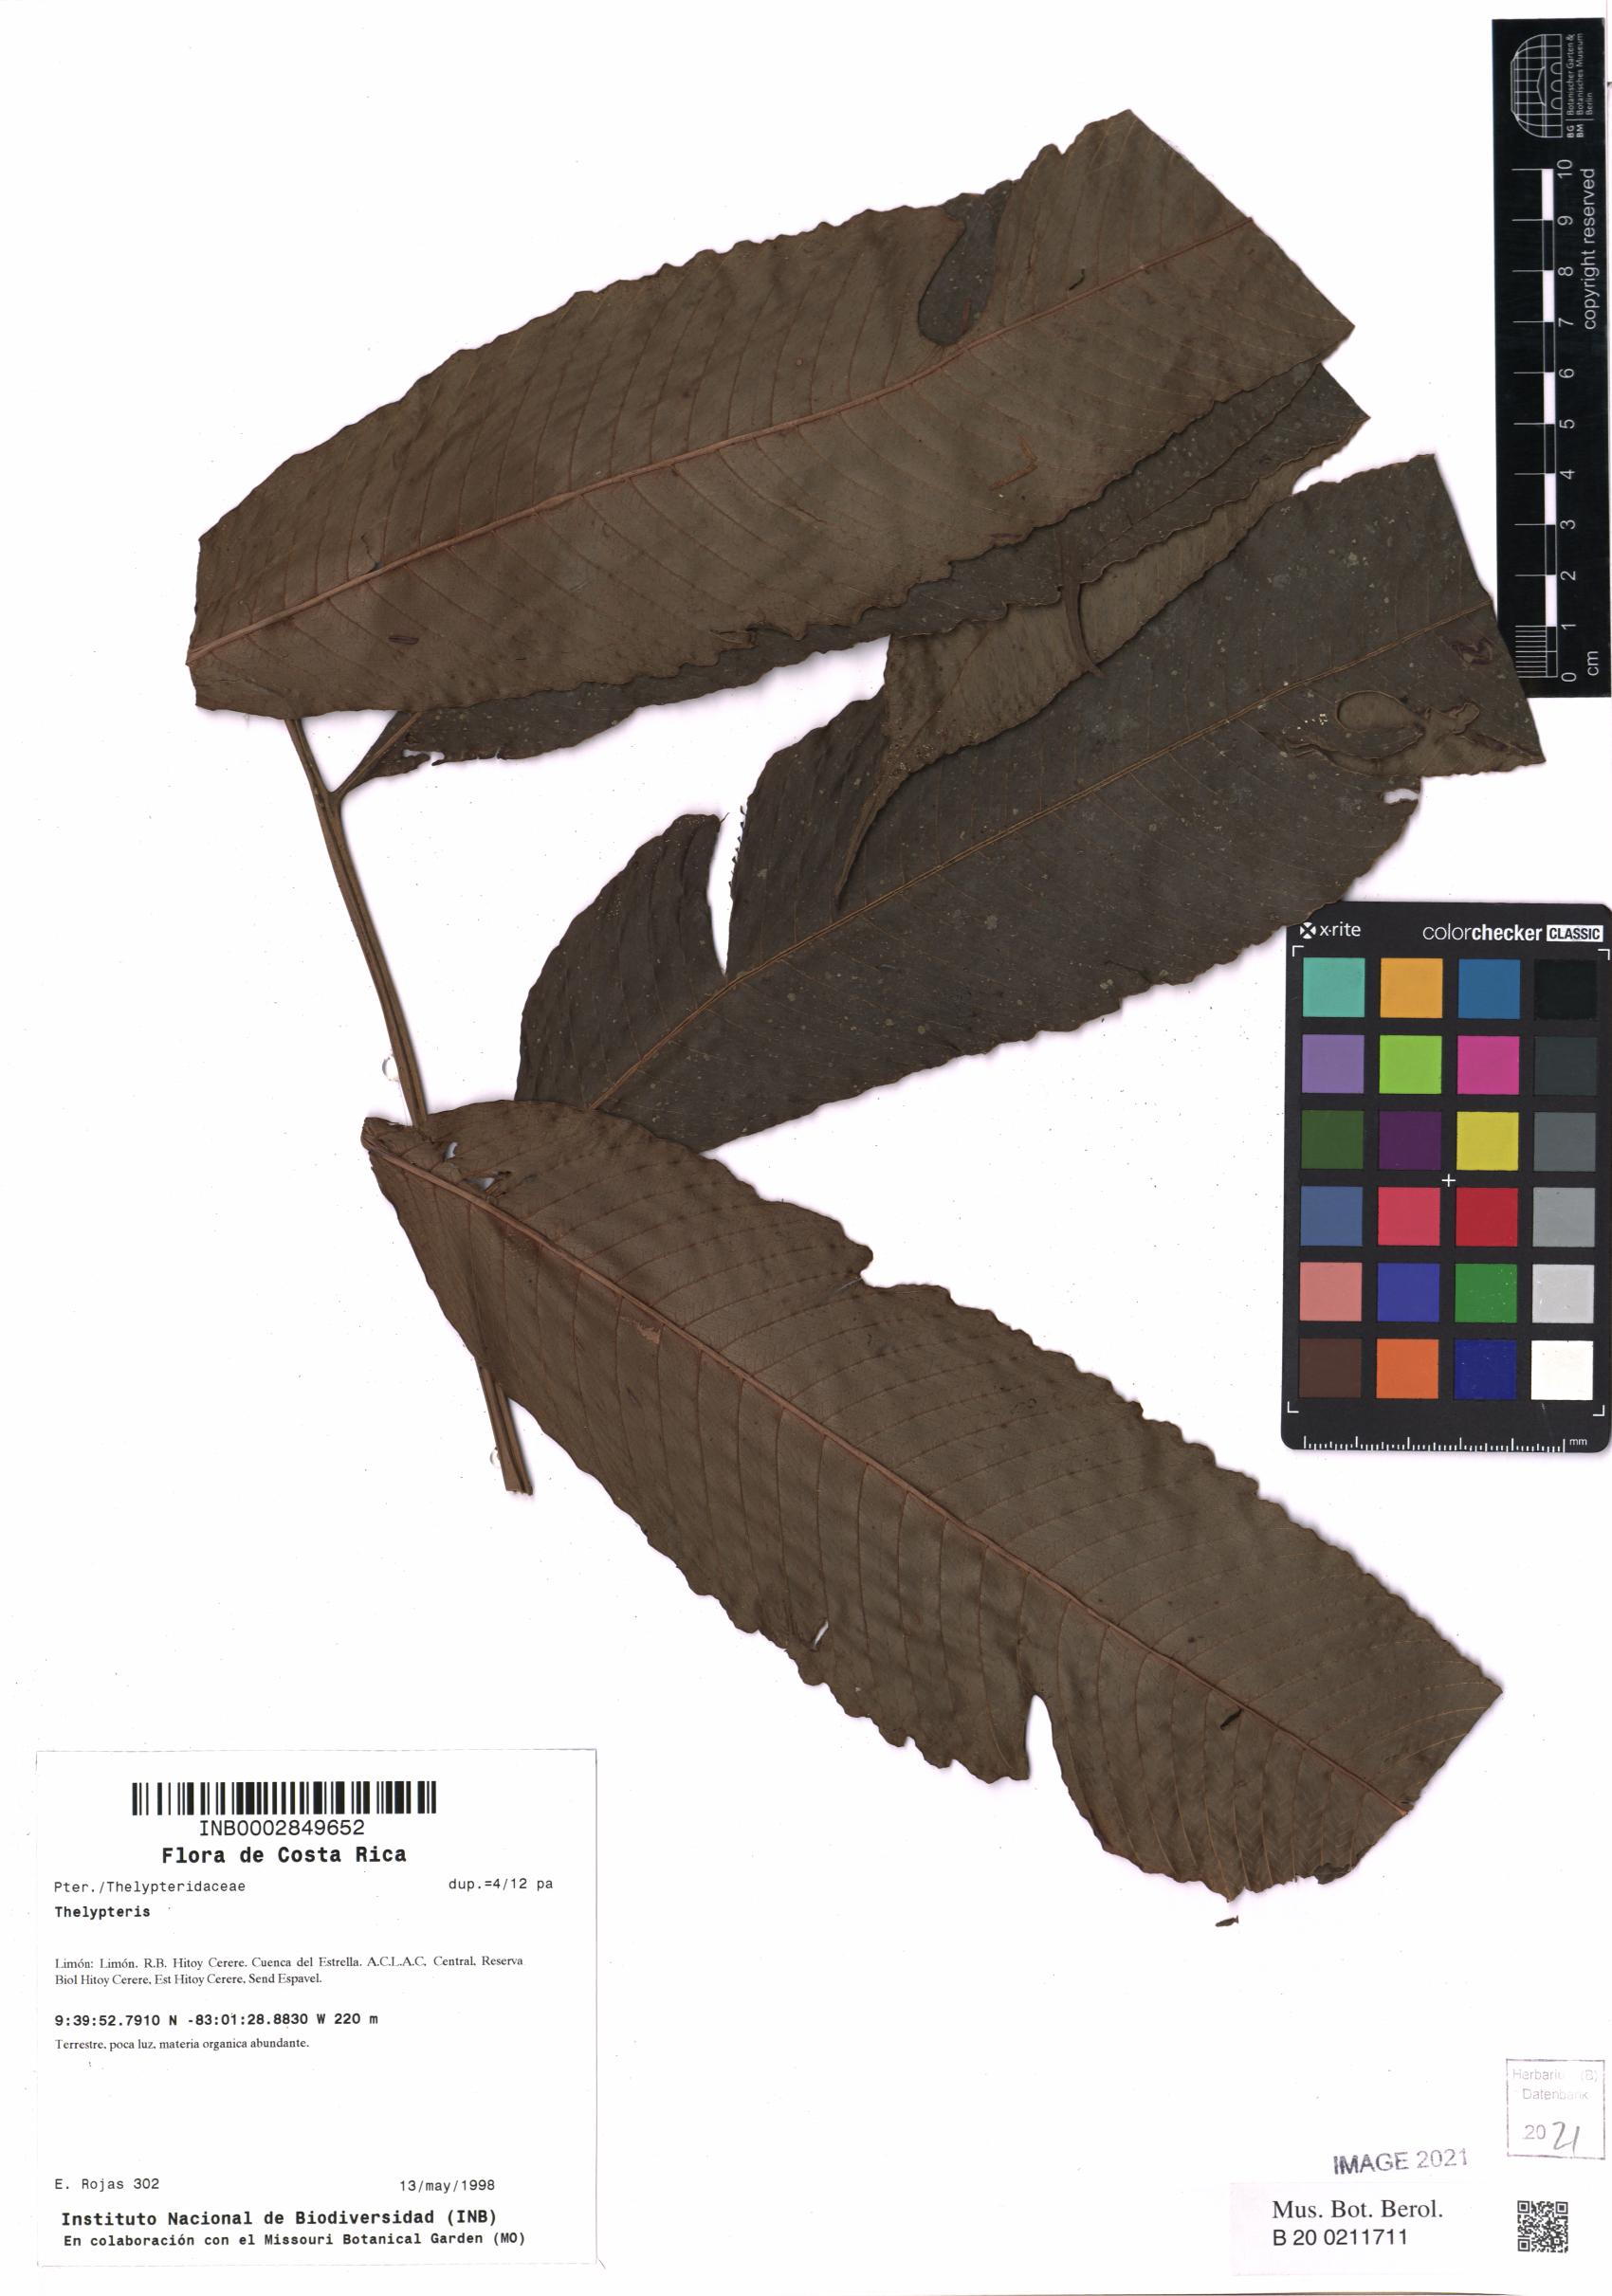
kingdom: Plantae
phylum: Tracheophyta
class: Polypodiopsida
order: Polypodiales
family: Thelypteridaceae
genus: Thelypteris
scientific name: Thelypteris
